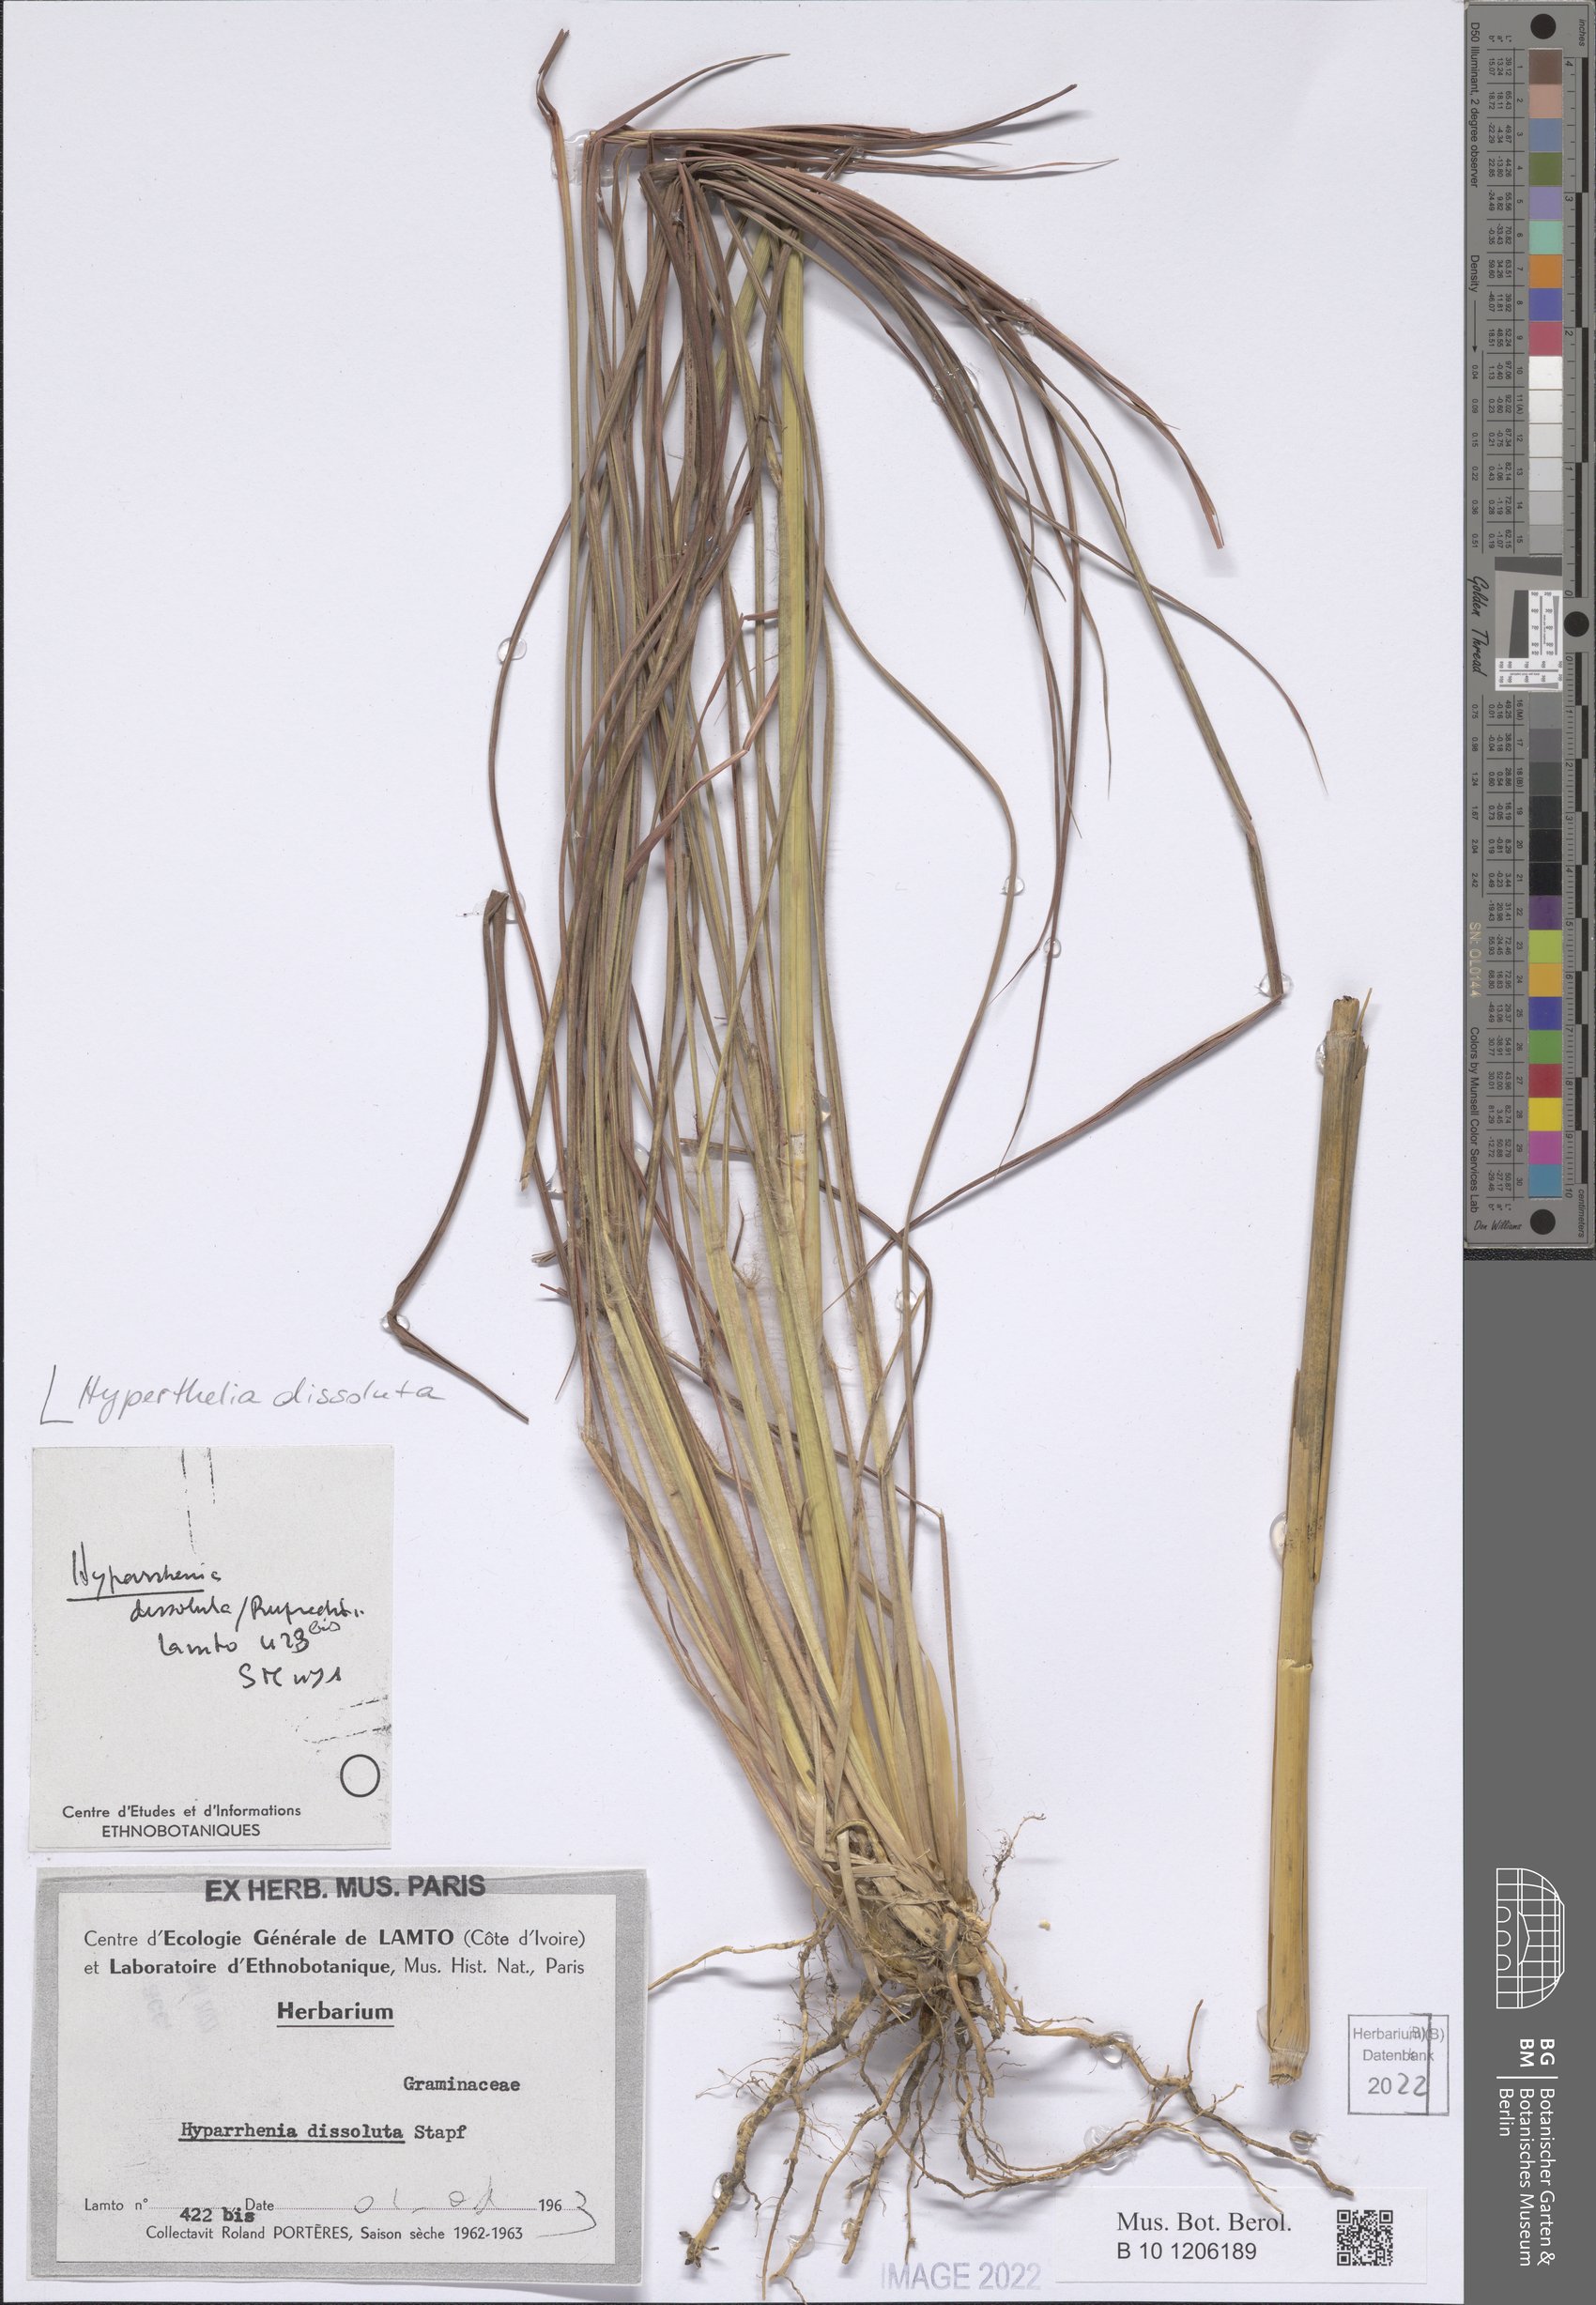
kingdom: Plantae
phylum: Tracheophyta
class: Liliopsida
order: Poales
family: Poaceae
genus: Hyperthelia
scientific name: Hyperthelia dissoluta
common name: Yellow thatching grass
